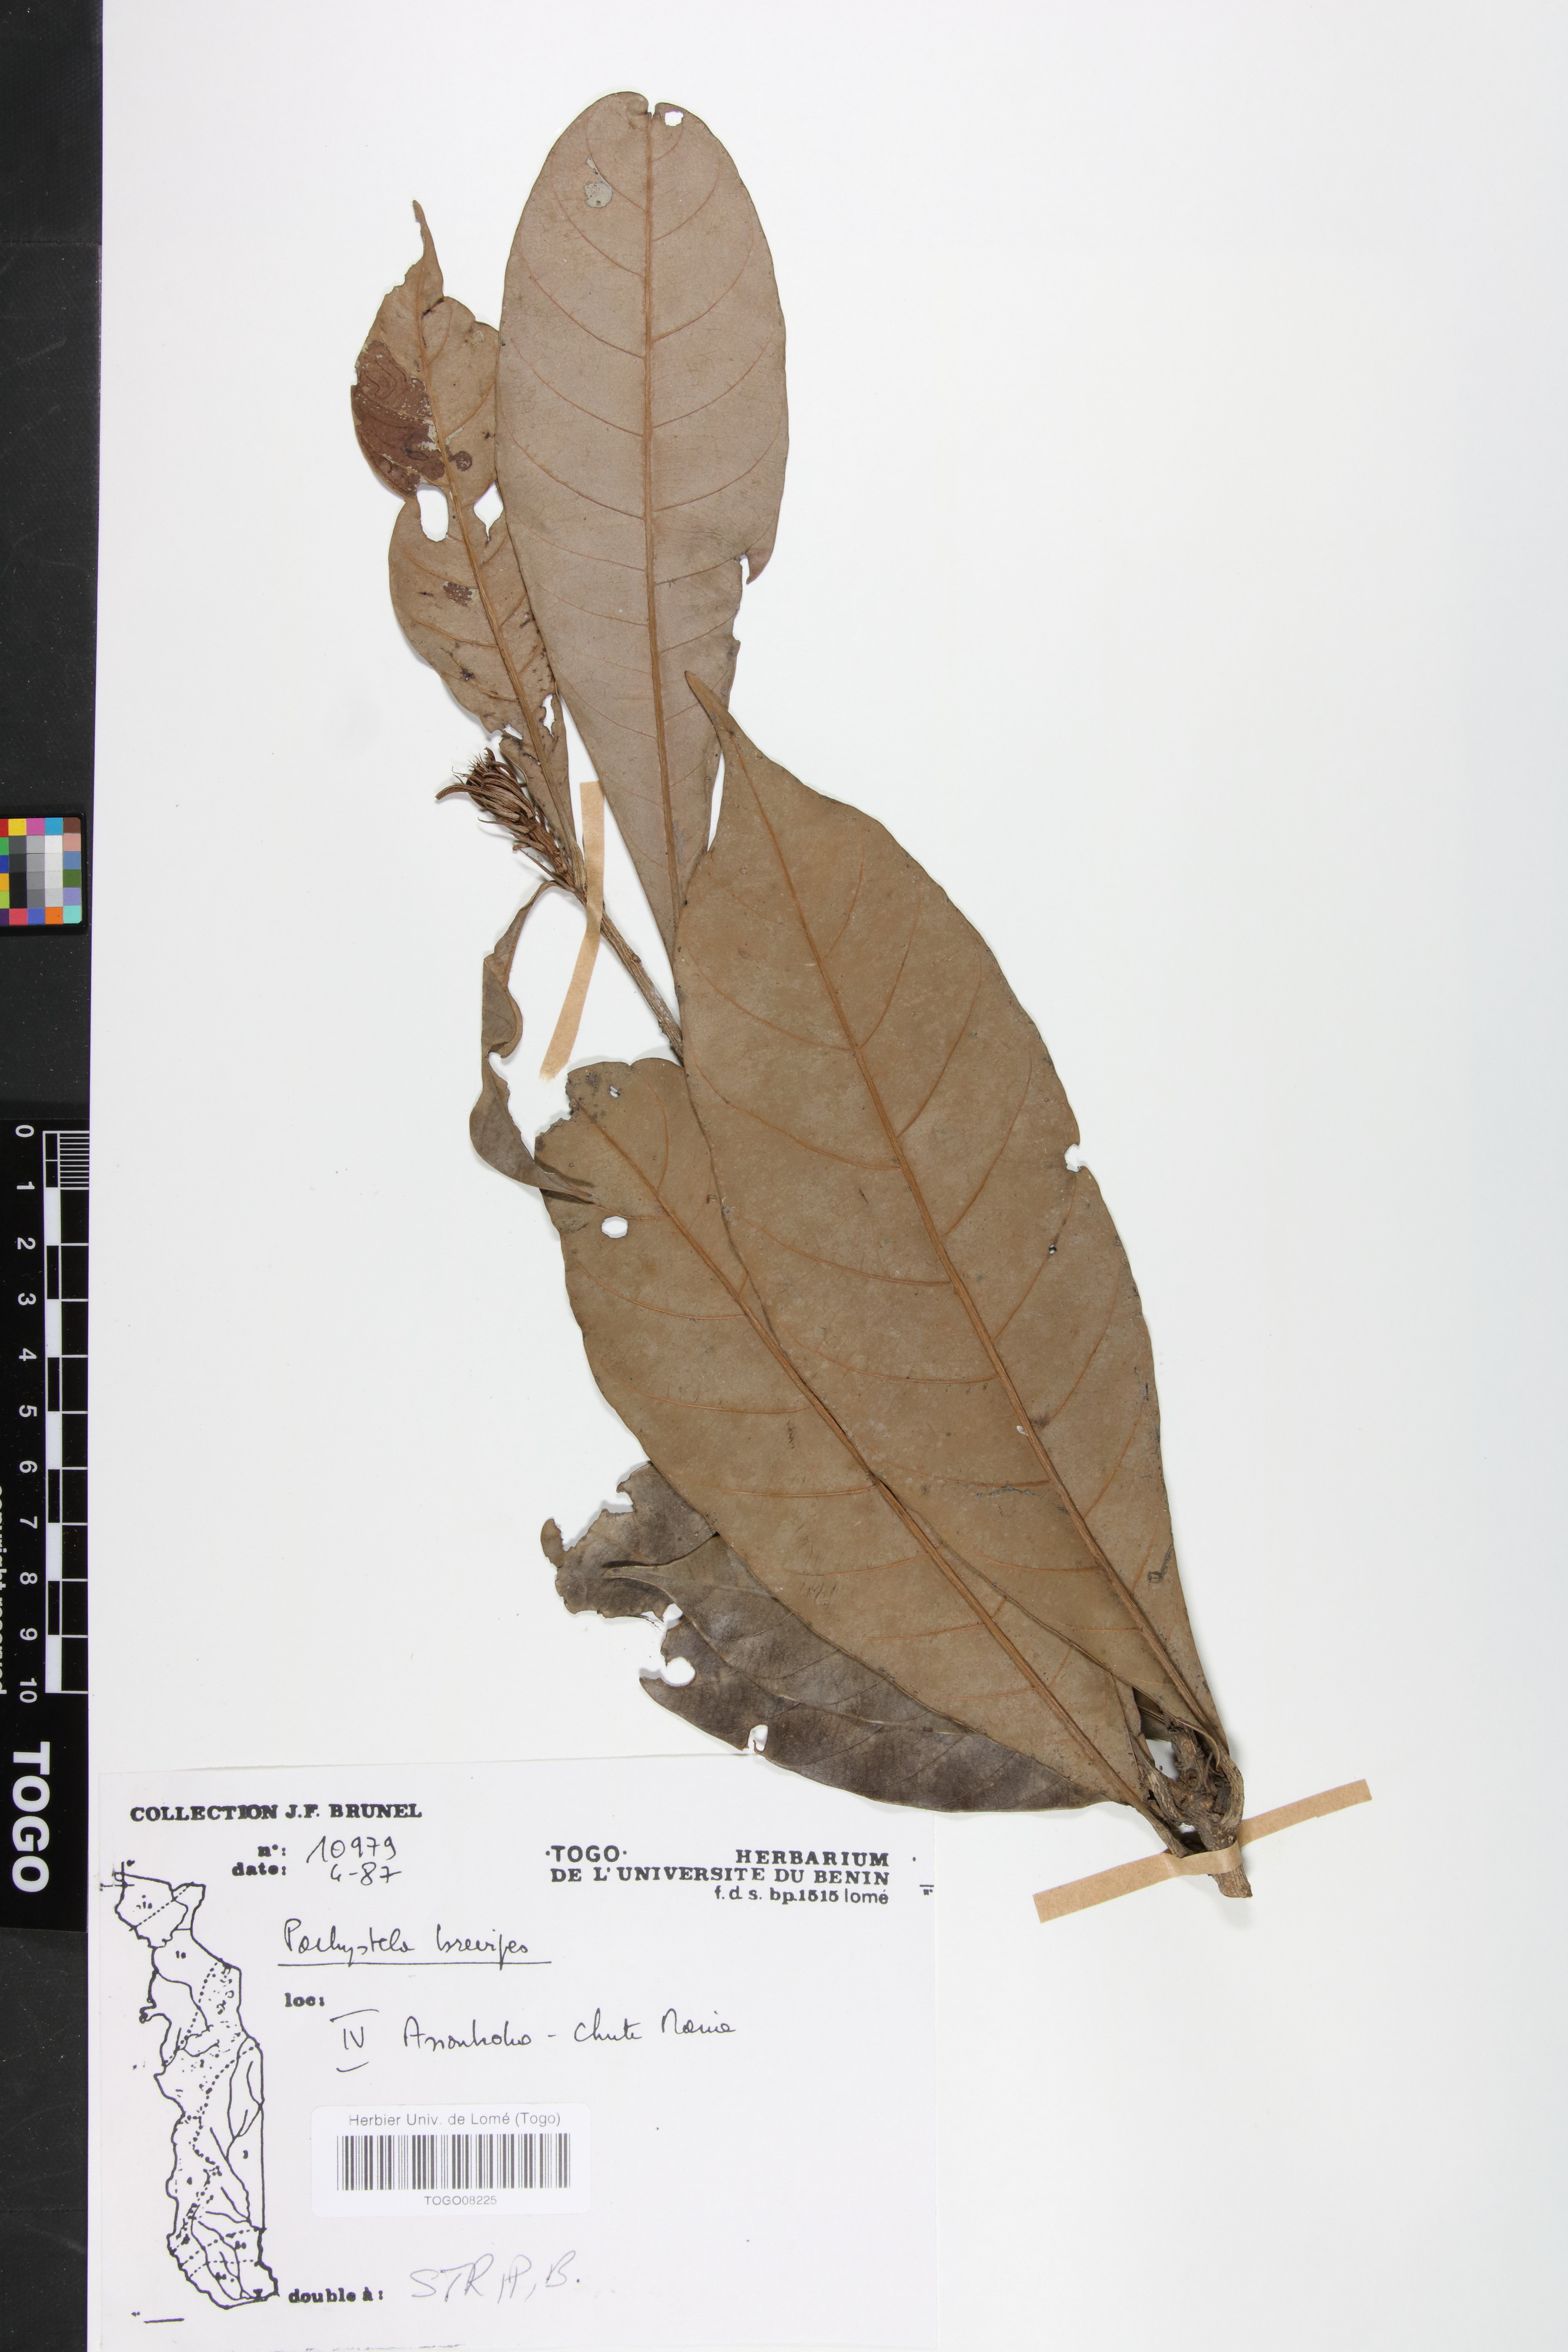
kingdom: Plantae
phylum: Tracheophyta
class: Magnoliopsida
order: Ericales
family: Sapotaceae
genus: Synsepalum
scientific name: Synsepalum brevipes
